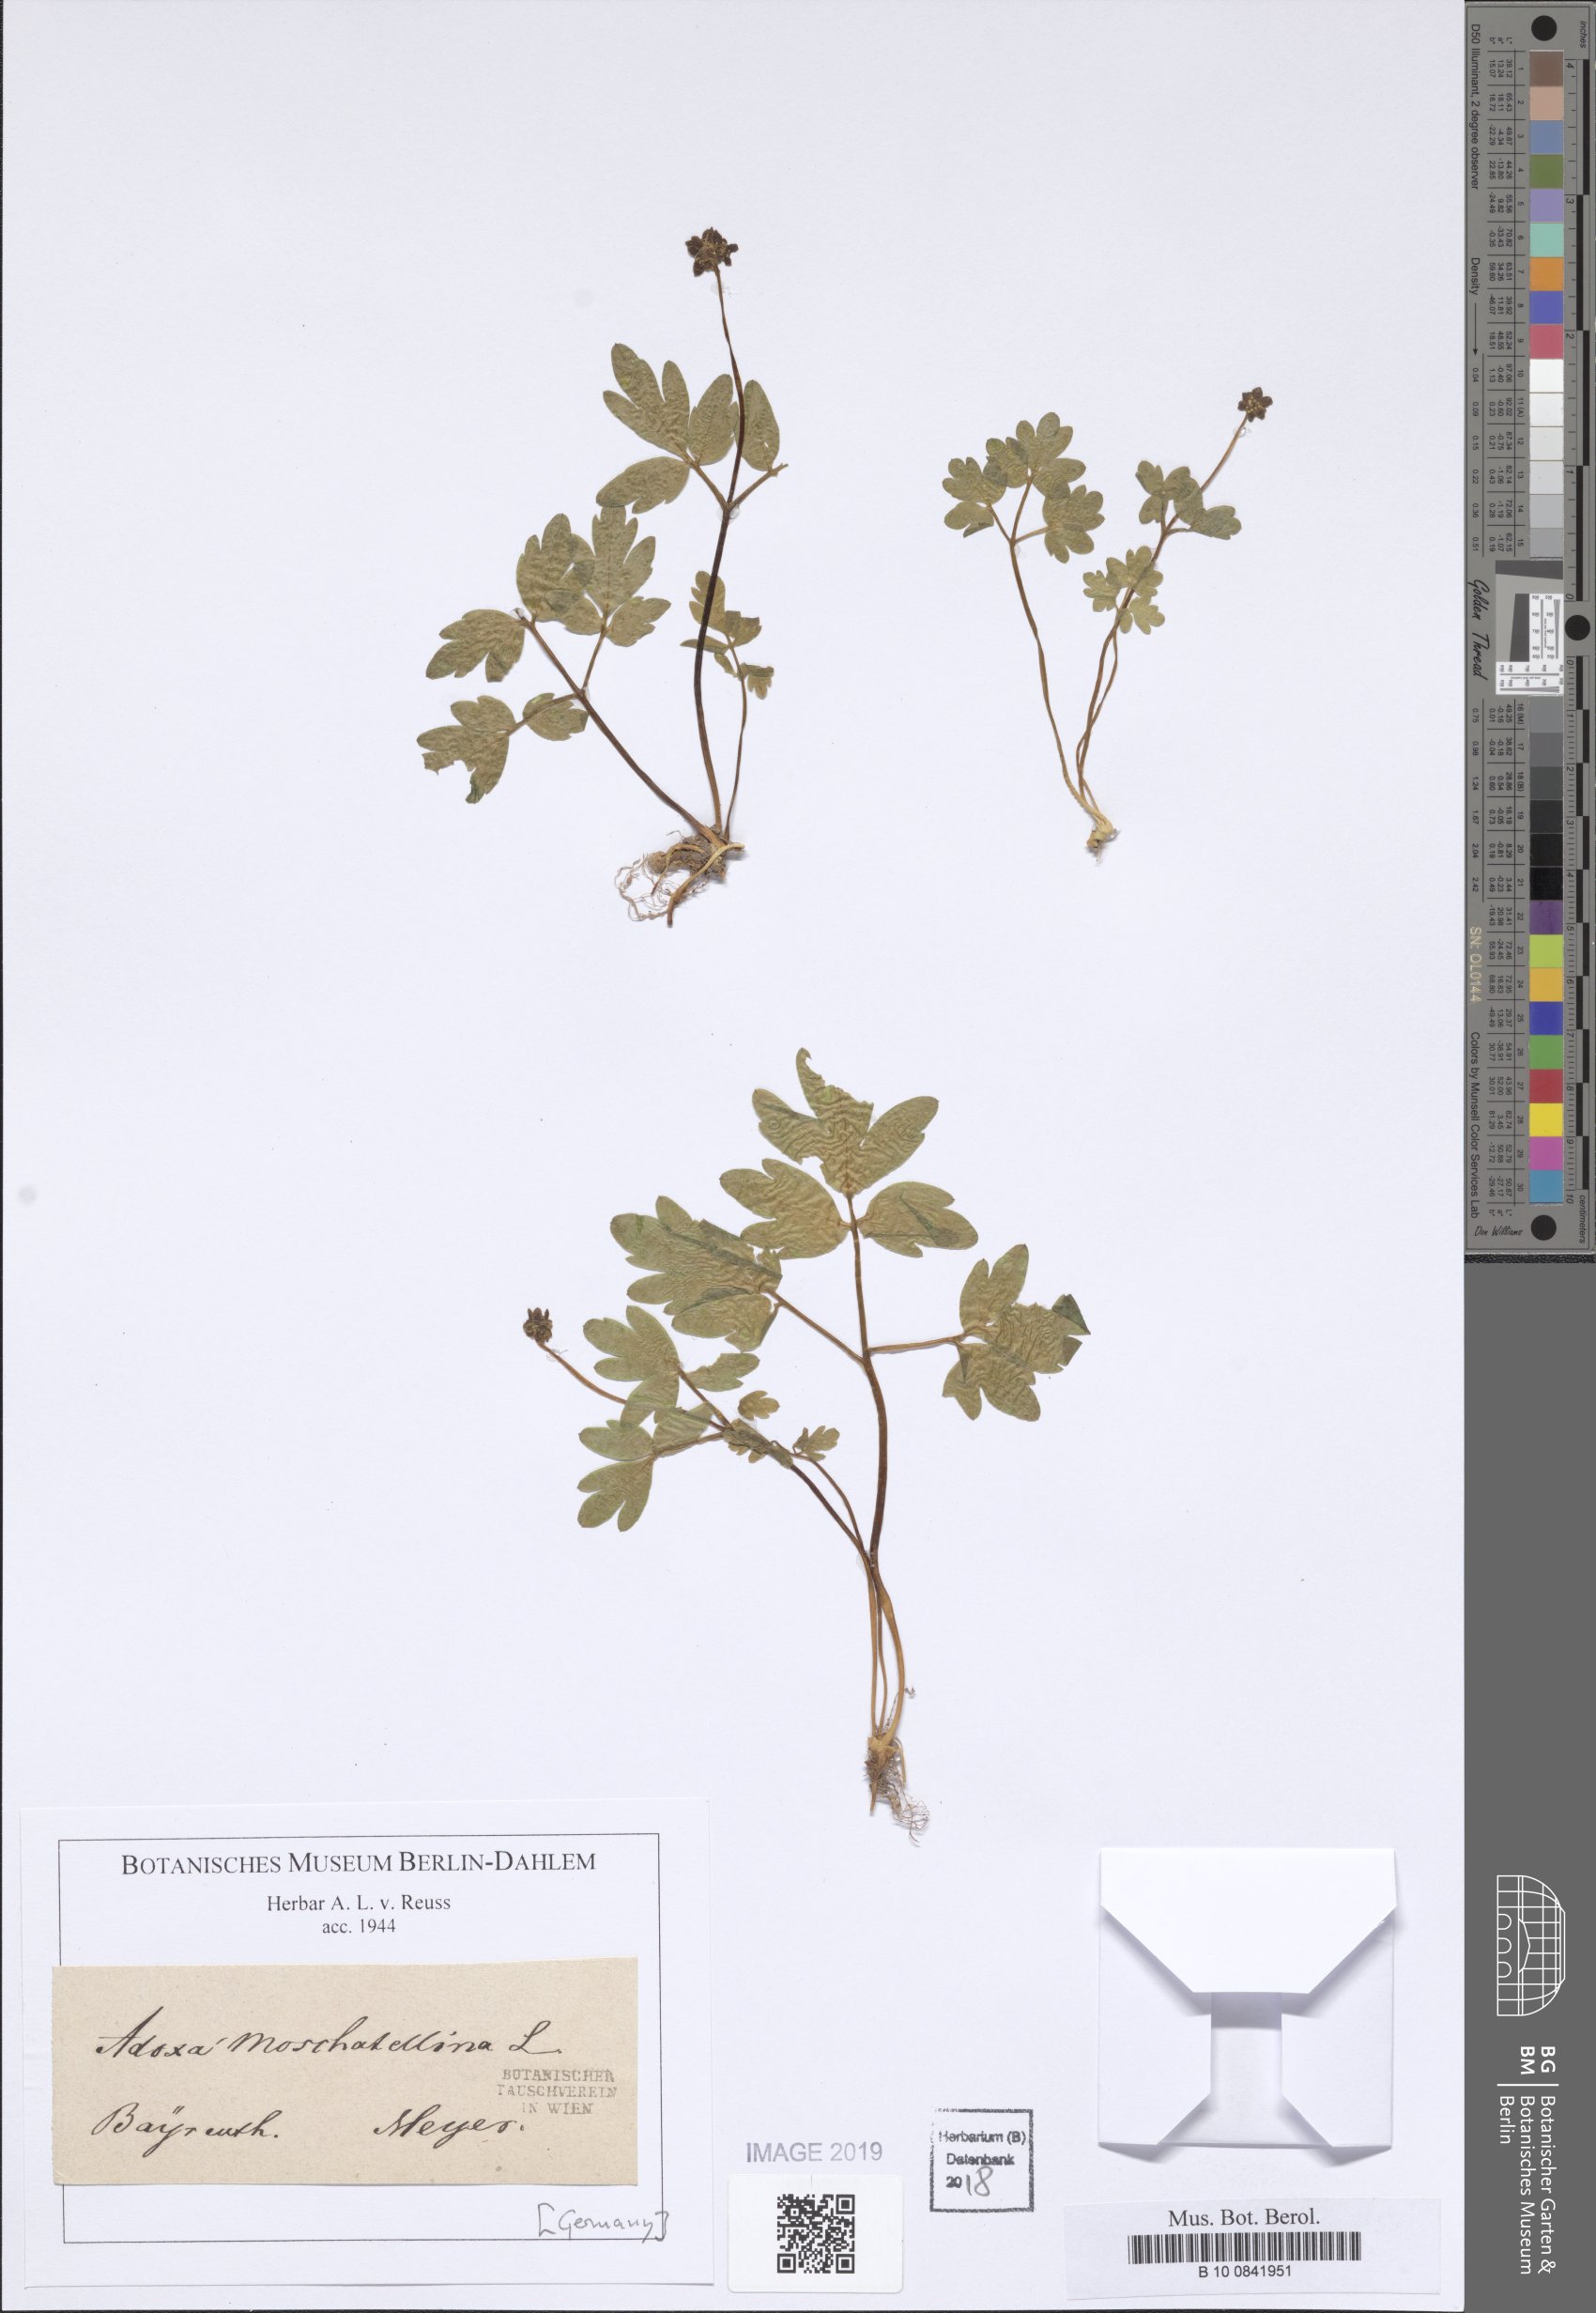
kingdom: Plantae
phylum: Tracheophyta
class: Magnoliopsida
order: Dipsacales
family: Viburnaceae
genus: Adoxa
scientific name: Adoxa moschatellina
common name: Moschatel
